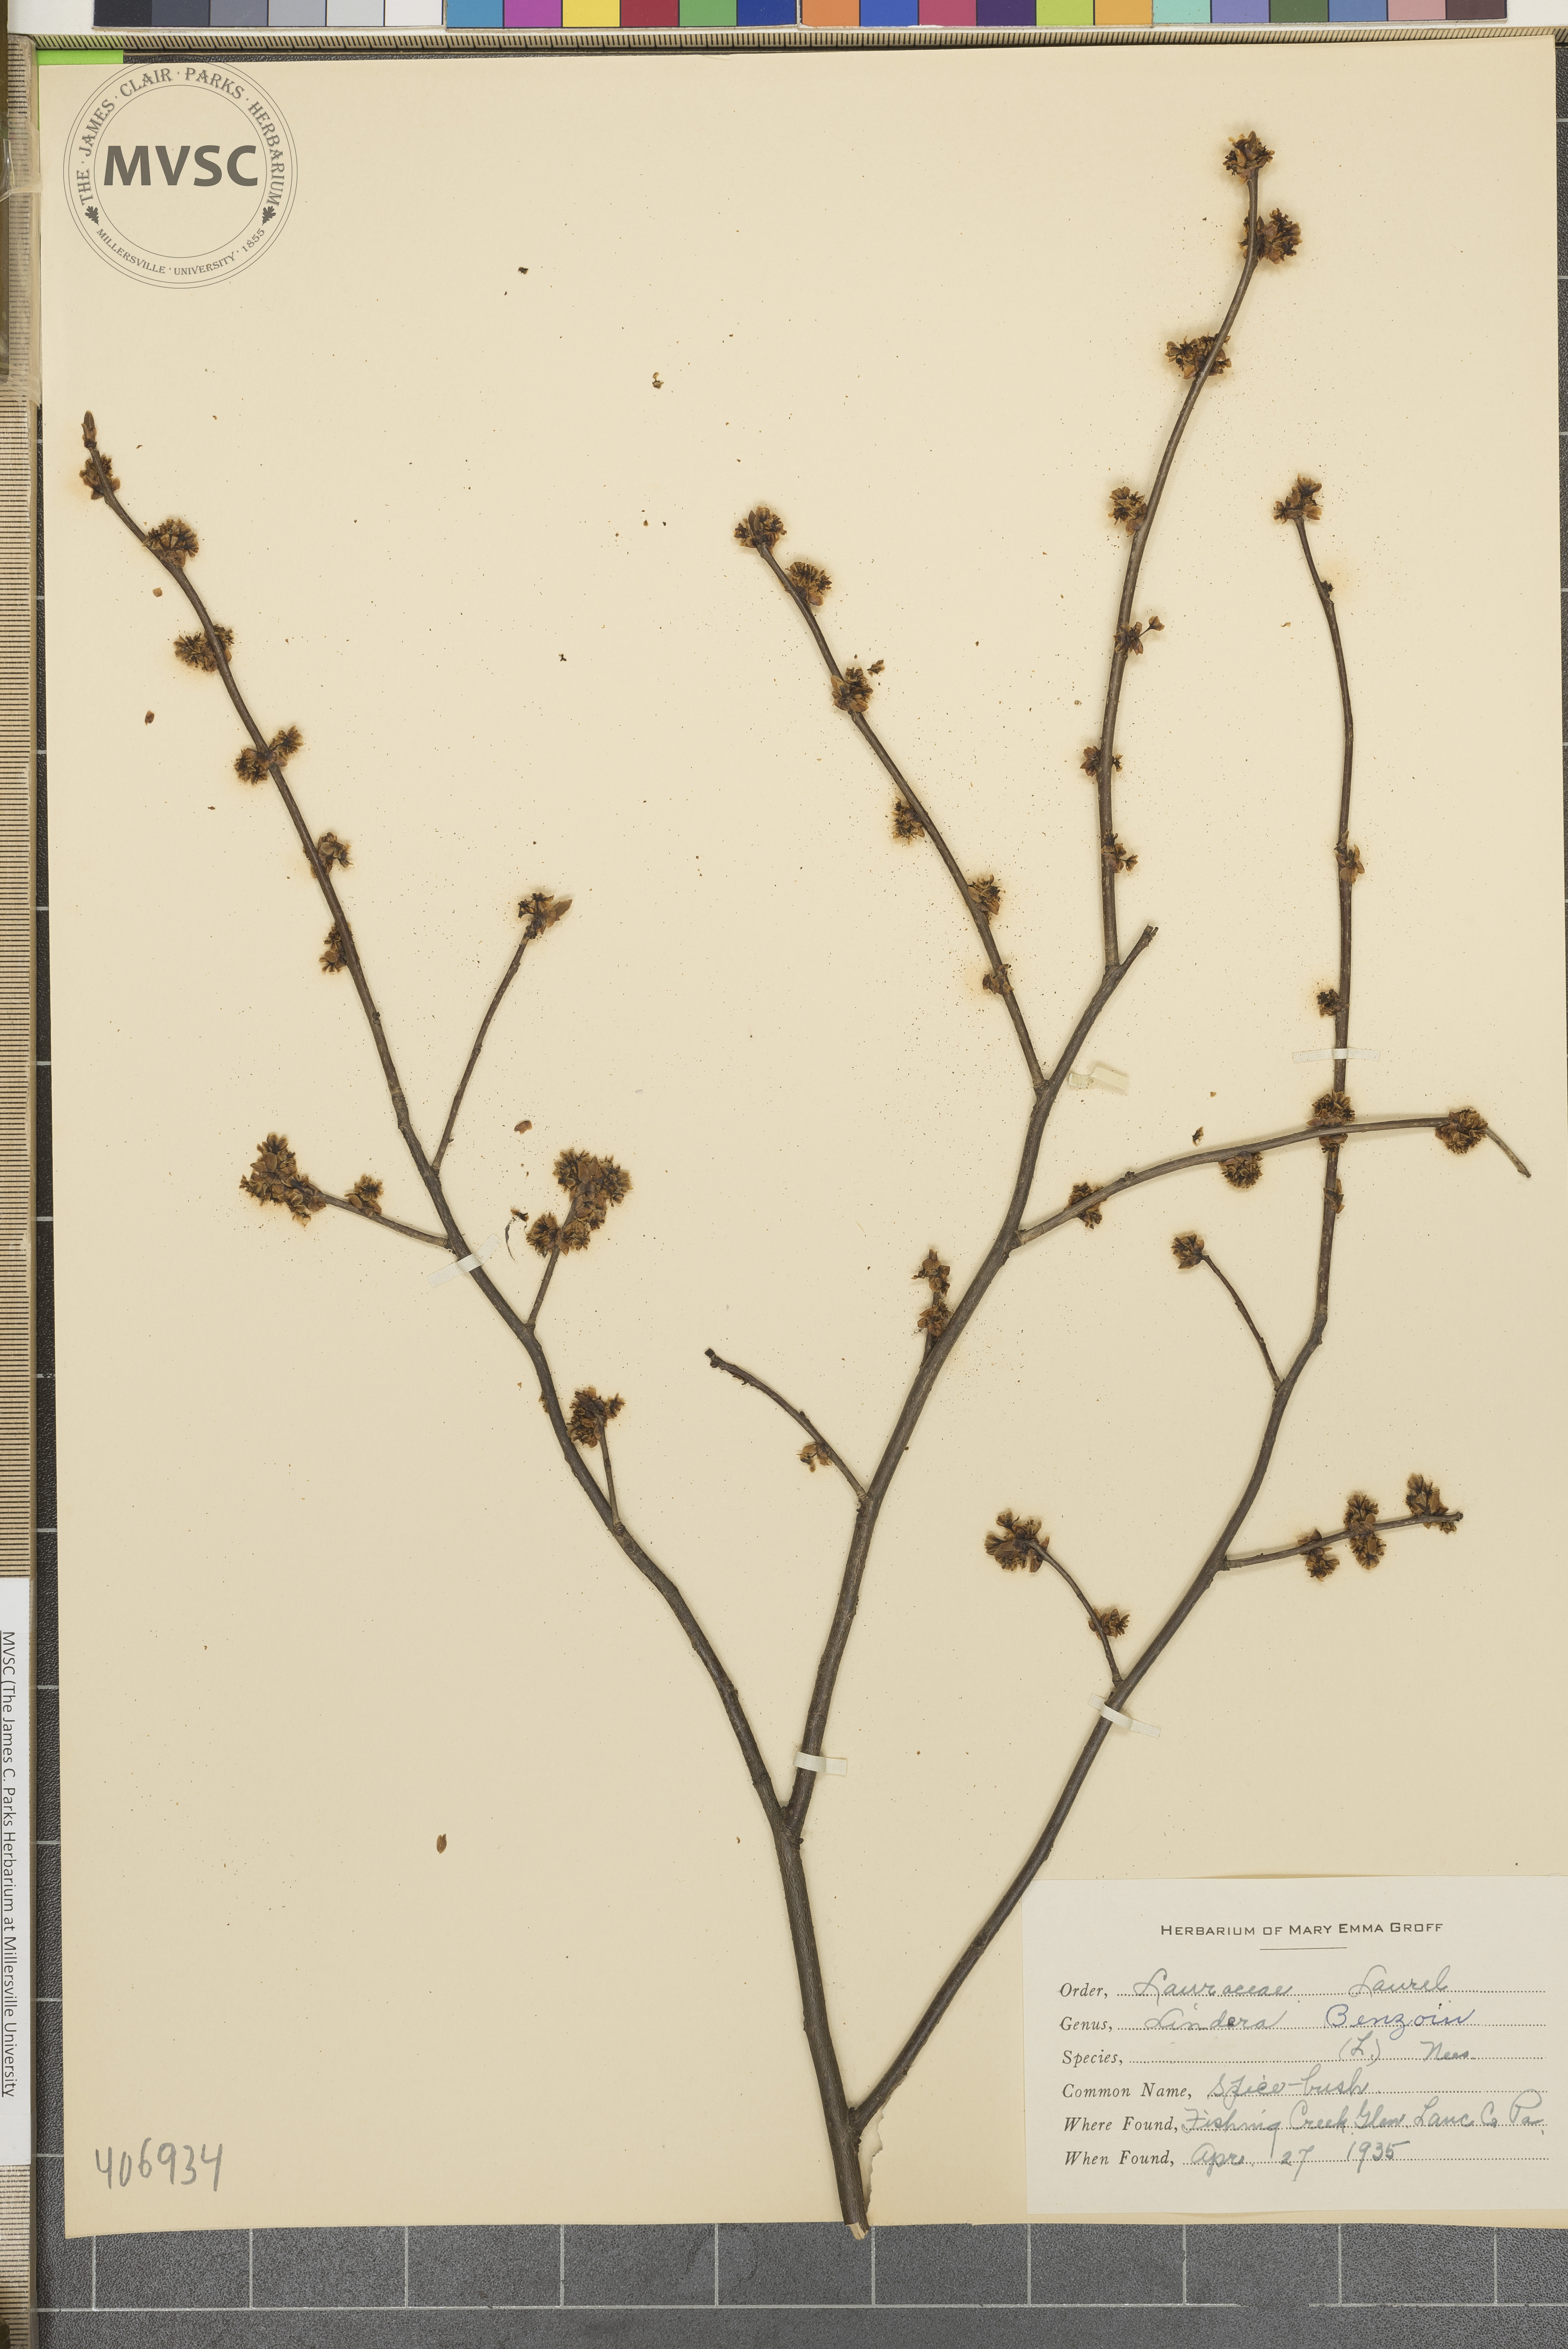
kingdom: Plantae
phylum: Tracheophyta
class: Magnoliopsida
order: Laurales
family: Lauraceae
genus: Lindera
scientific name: Lindera benzoin
